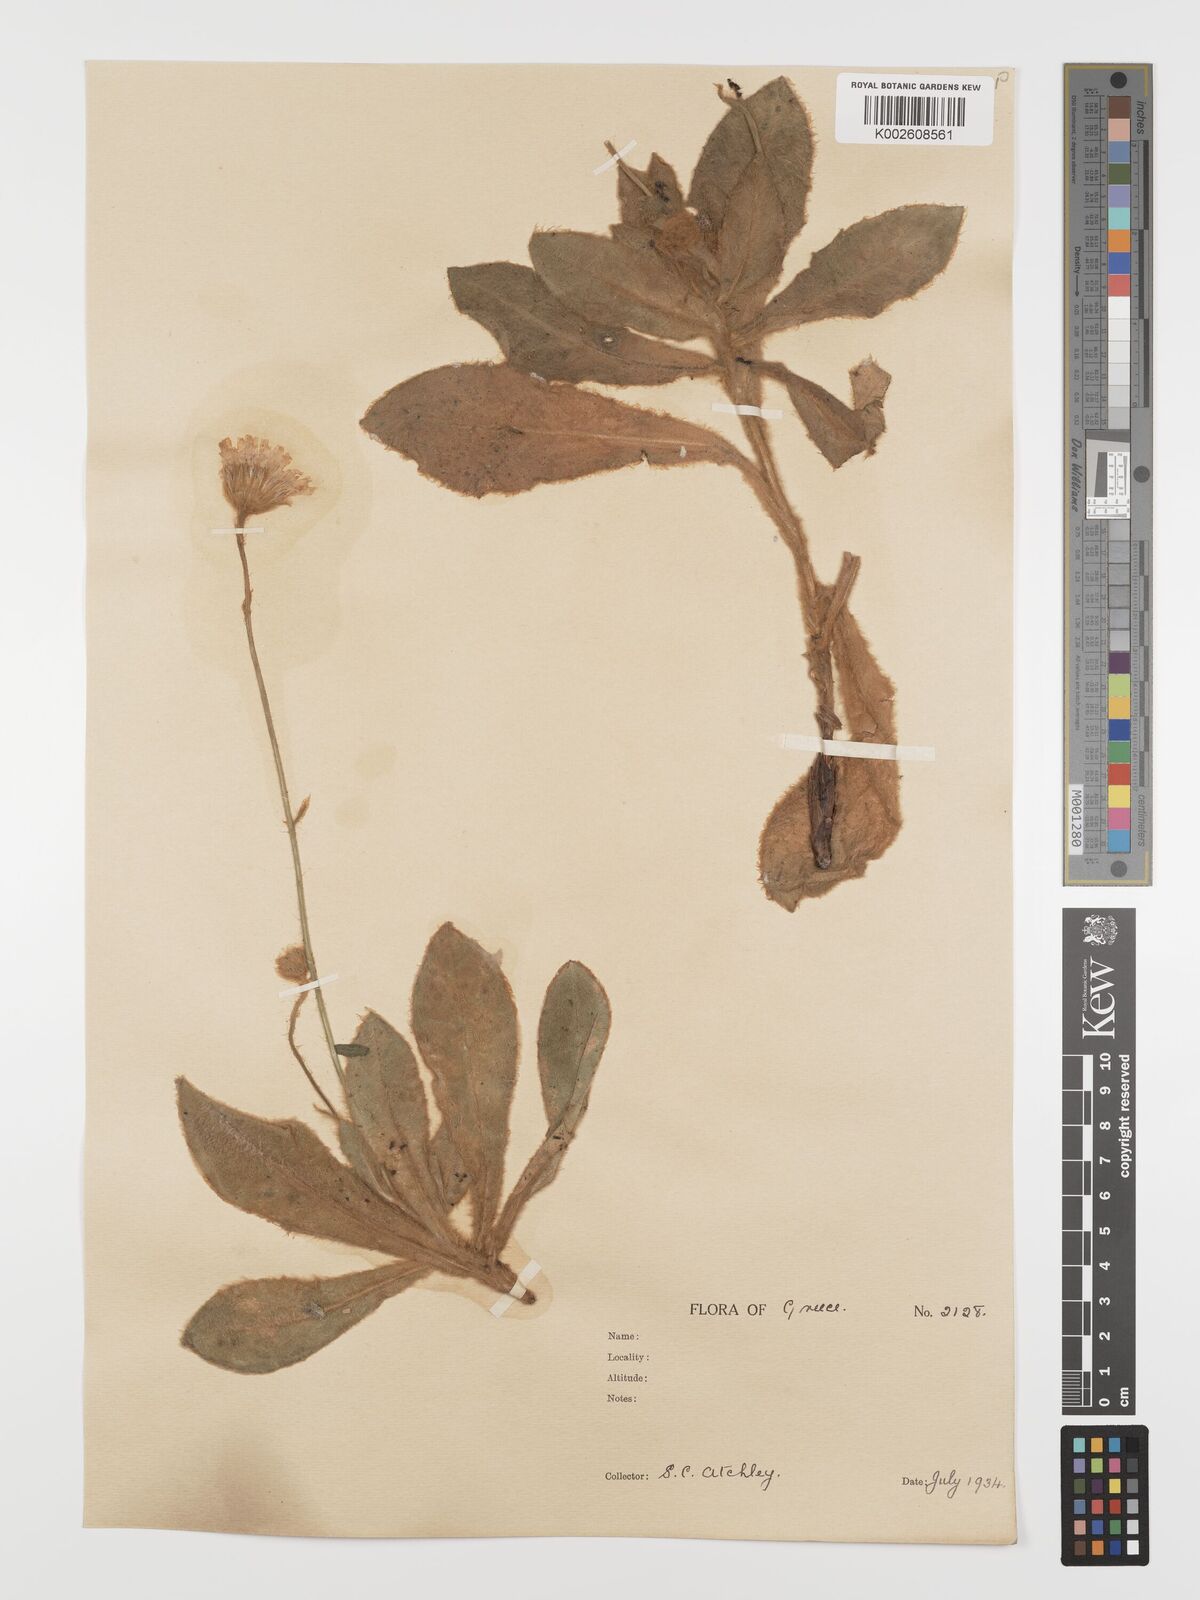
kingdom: Plantae
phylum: Tracheophyta
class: Magnoliopsida
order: Asterales
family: Asteraceae
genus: Hieracium
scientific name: Hieracium pannosum
